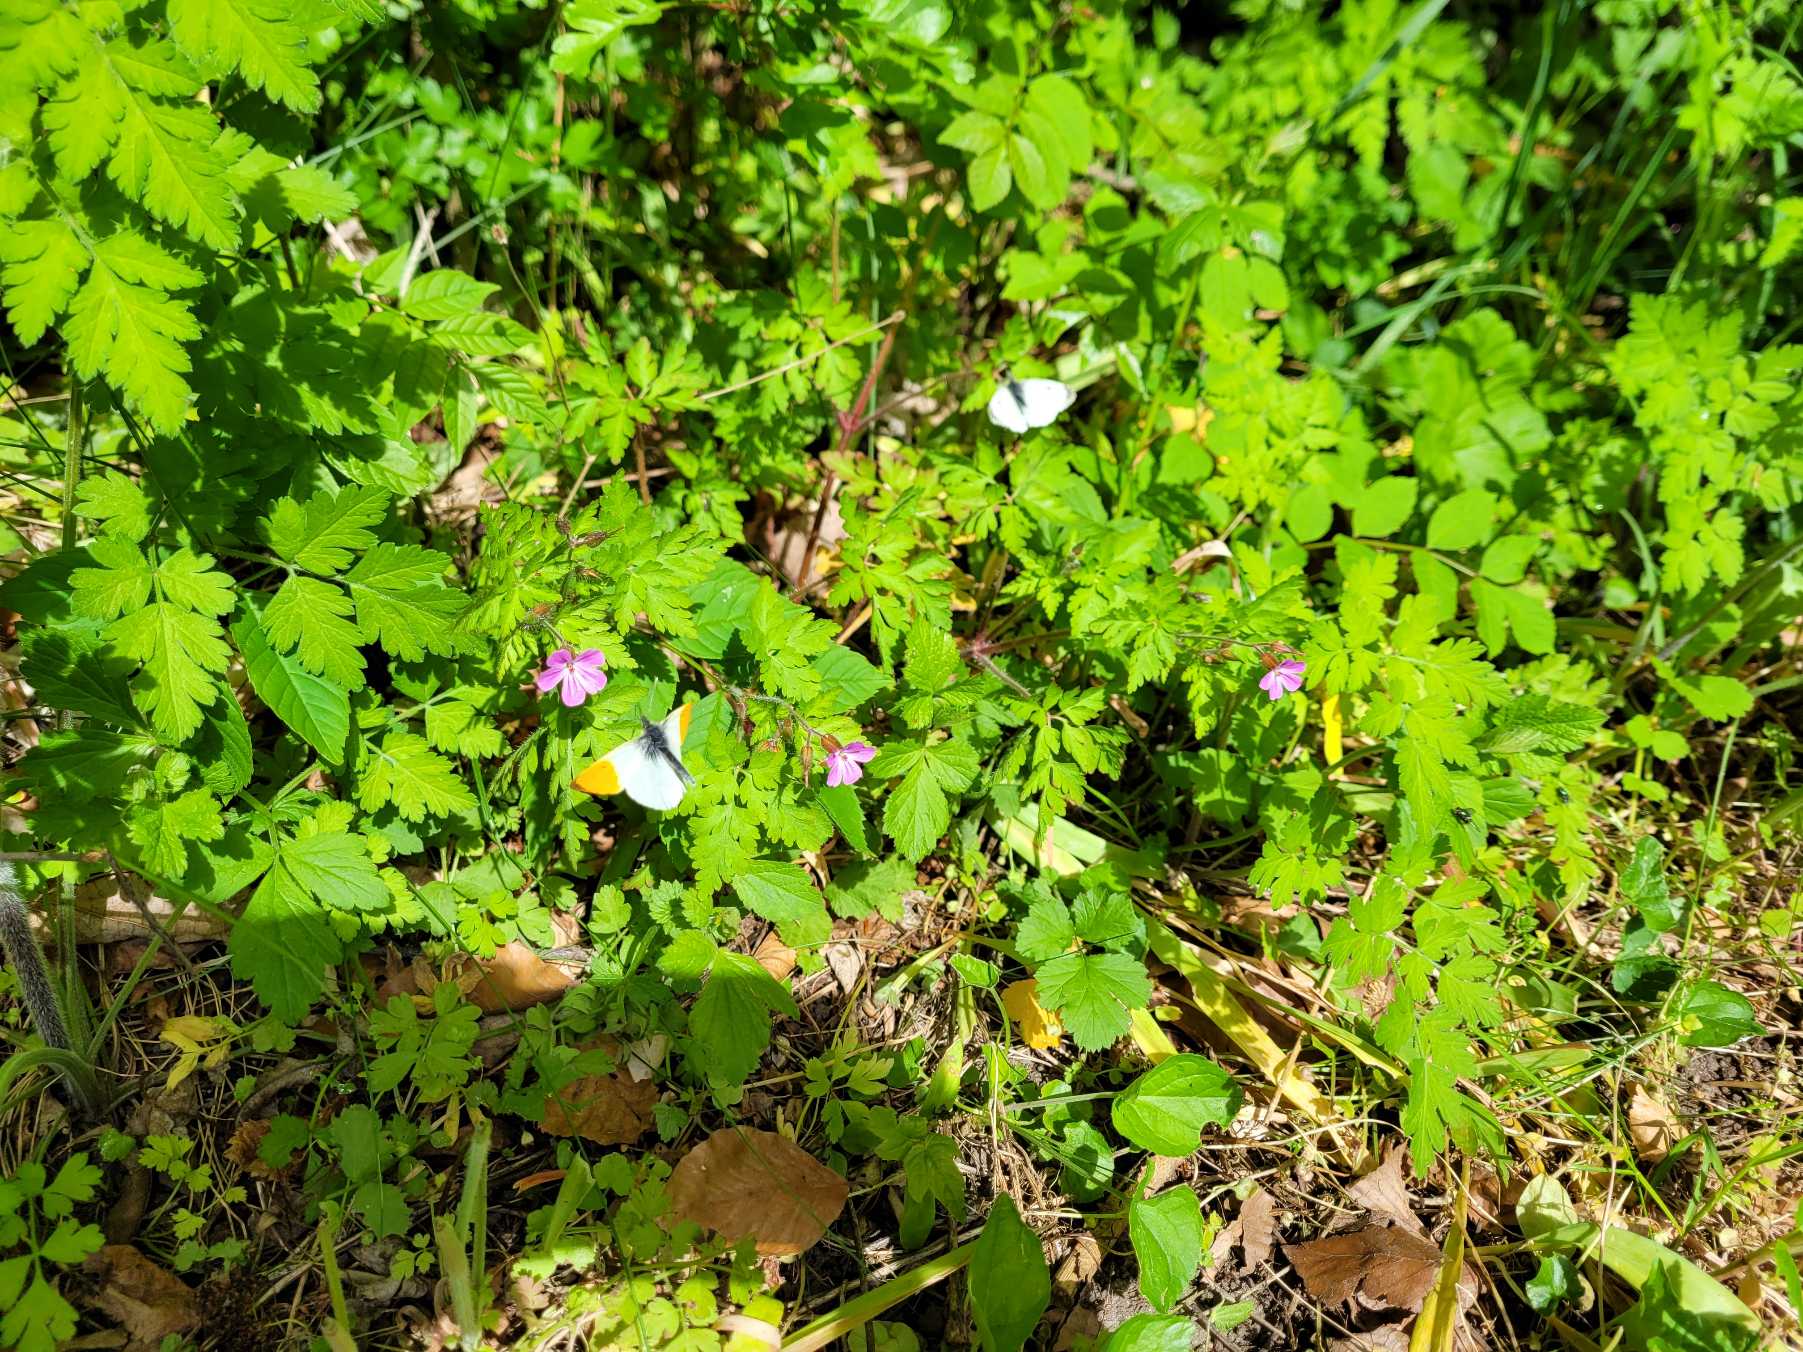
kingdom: Animalia
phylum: Arthropoda
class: Insecta
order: Lepidoptera
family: Pieridae
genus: Anthocharis
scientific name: Anthocharis cardamines
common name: Aurora
